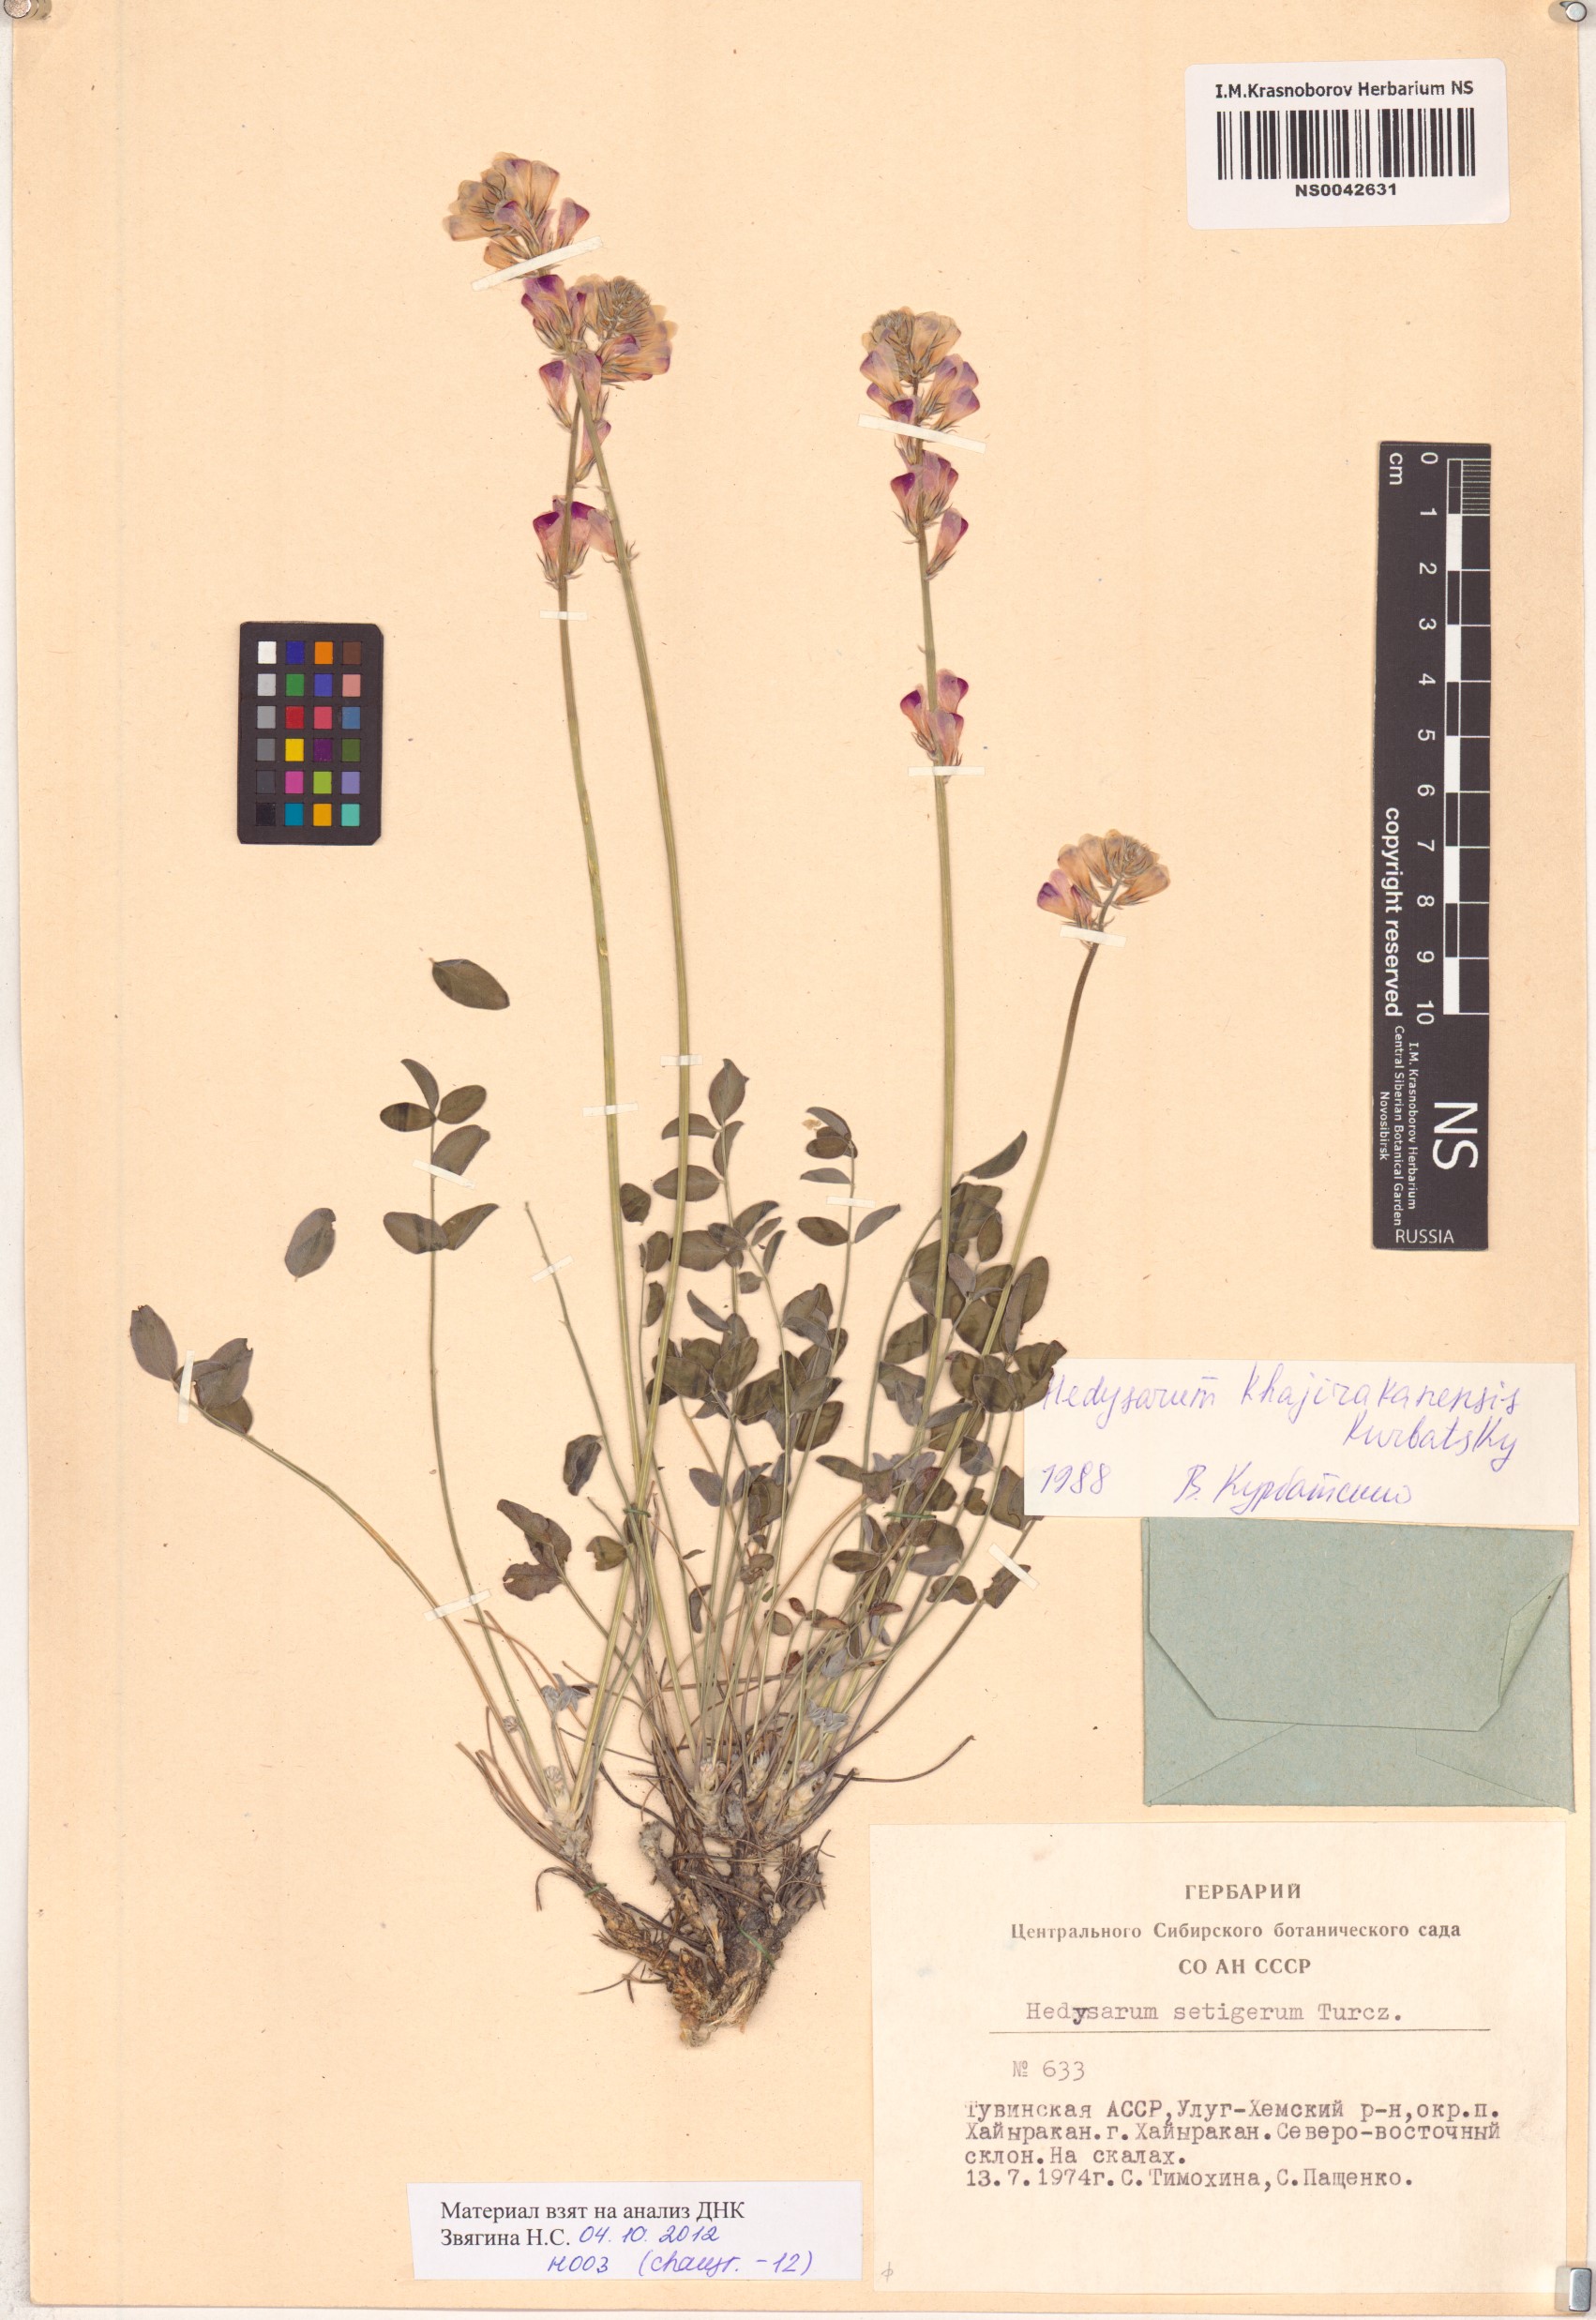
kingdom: Plantae
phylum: Tracheophyta
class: Magnoliopsida
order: Fabales
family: Fabaceae
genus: Hedysarum
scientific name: Hedysarum setigerum
